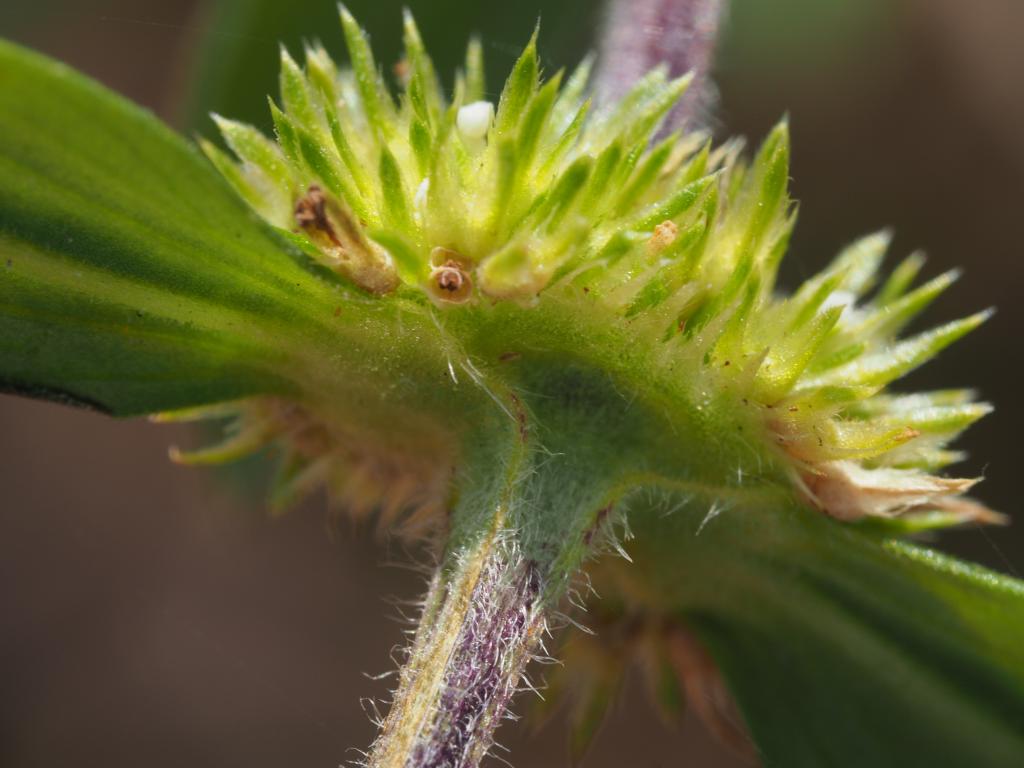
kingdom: Plantae
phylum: Tracheophyta
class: Magnoliopsida
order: Gentianales
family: Rubiaceae
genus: Mitracarpus
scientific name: Mitracarpus hirtus
